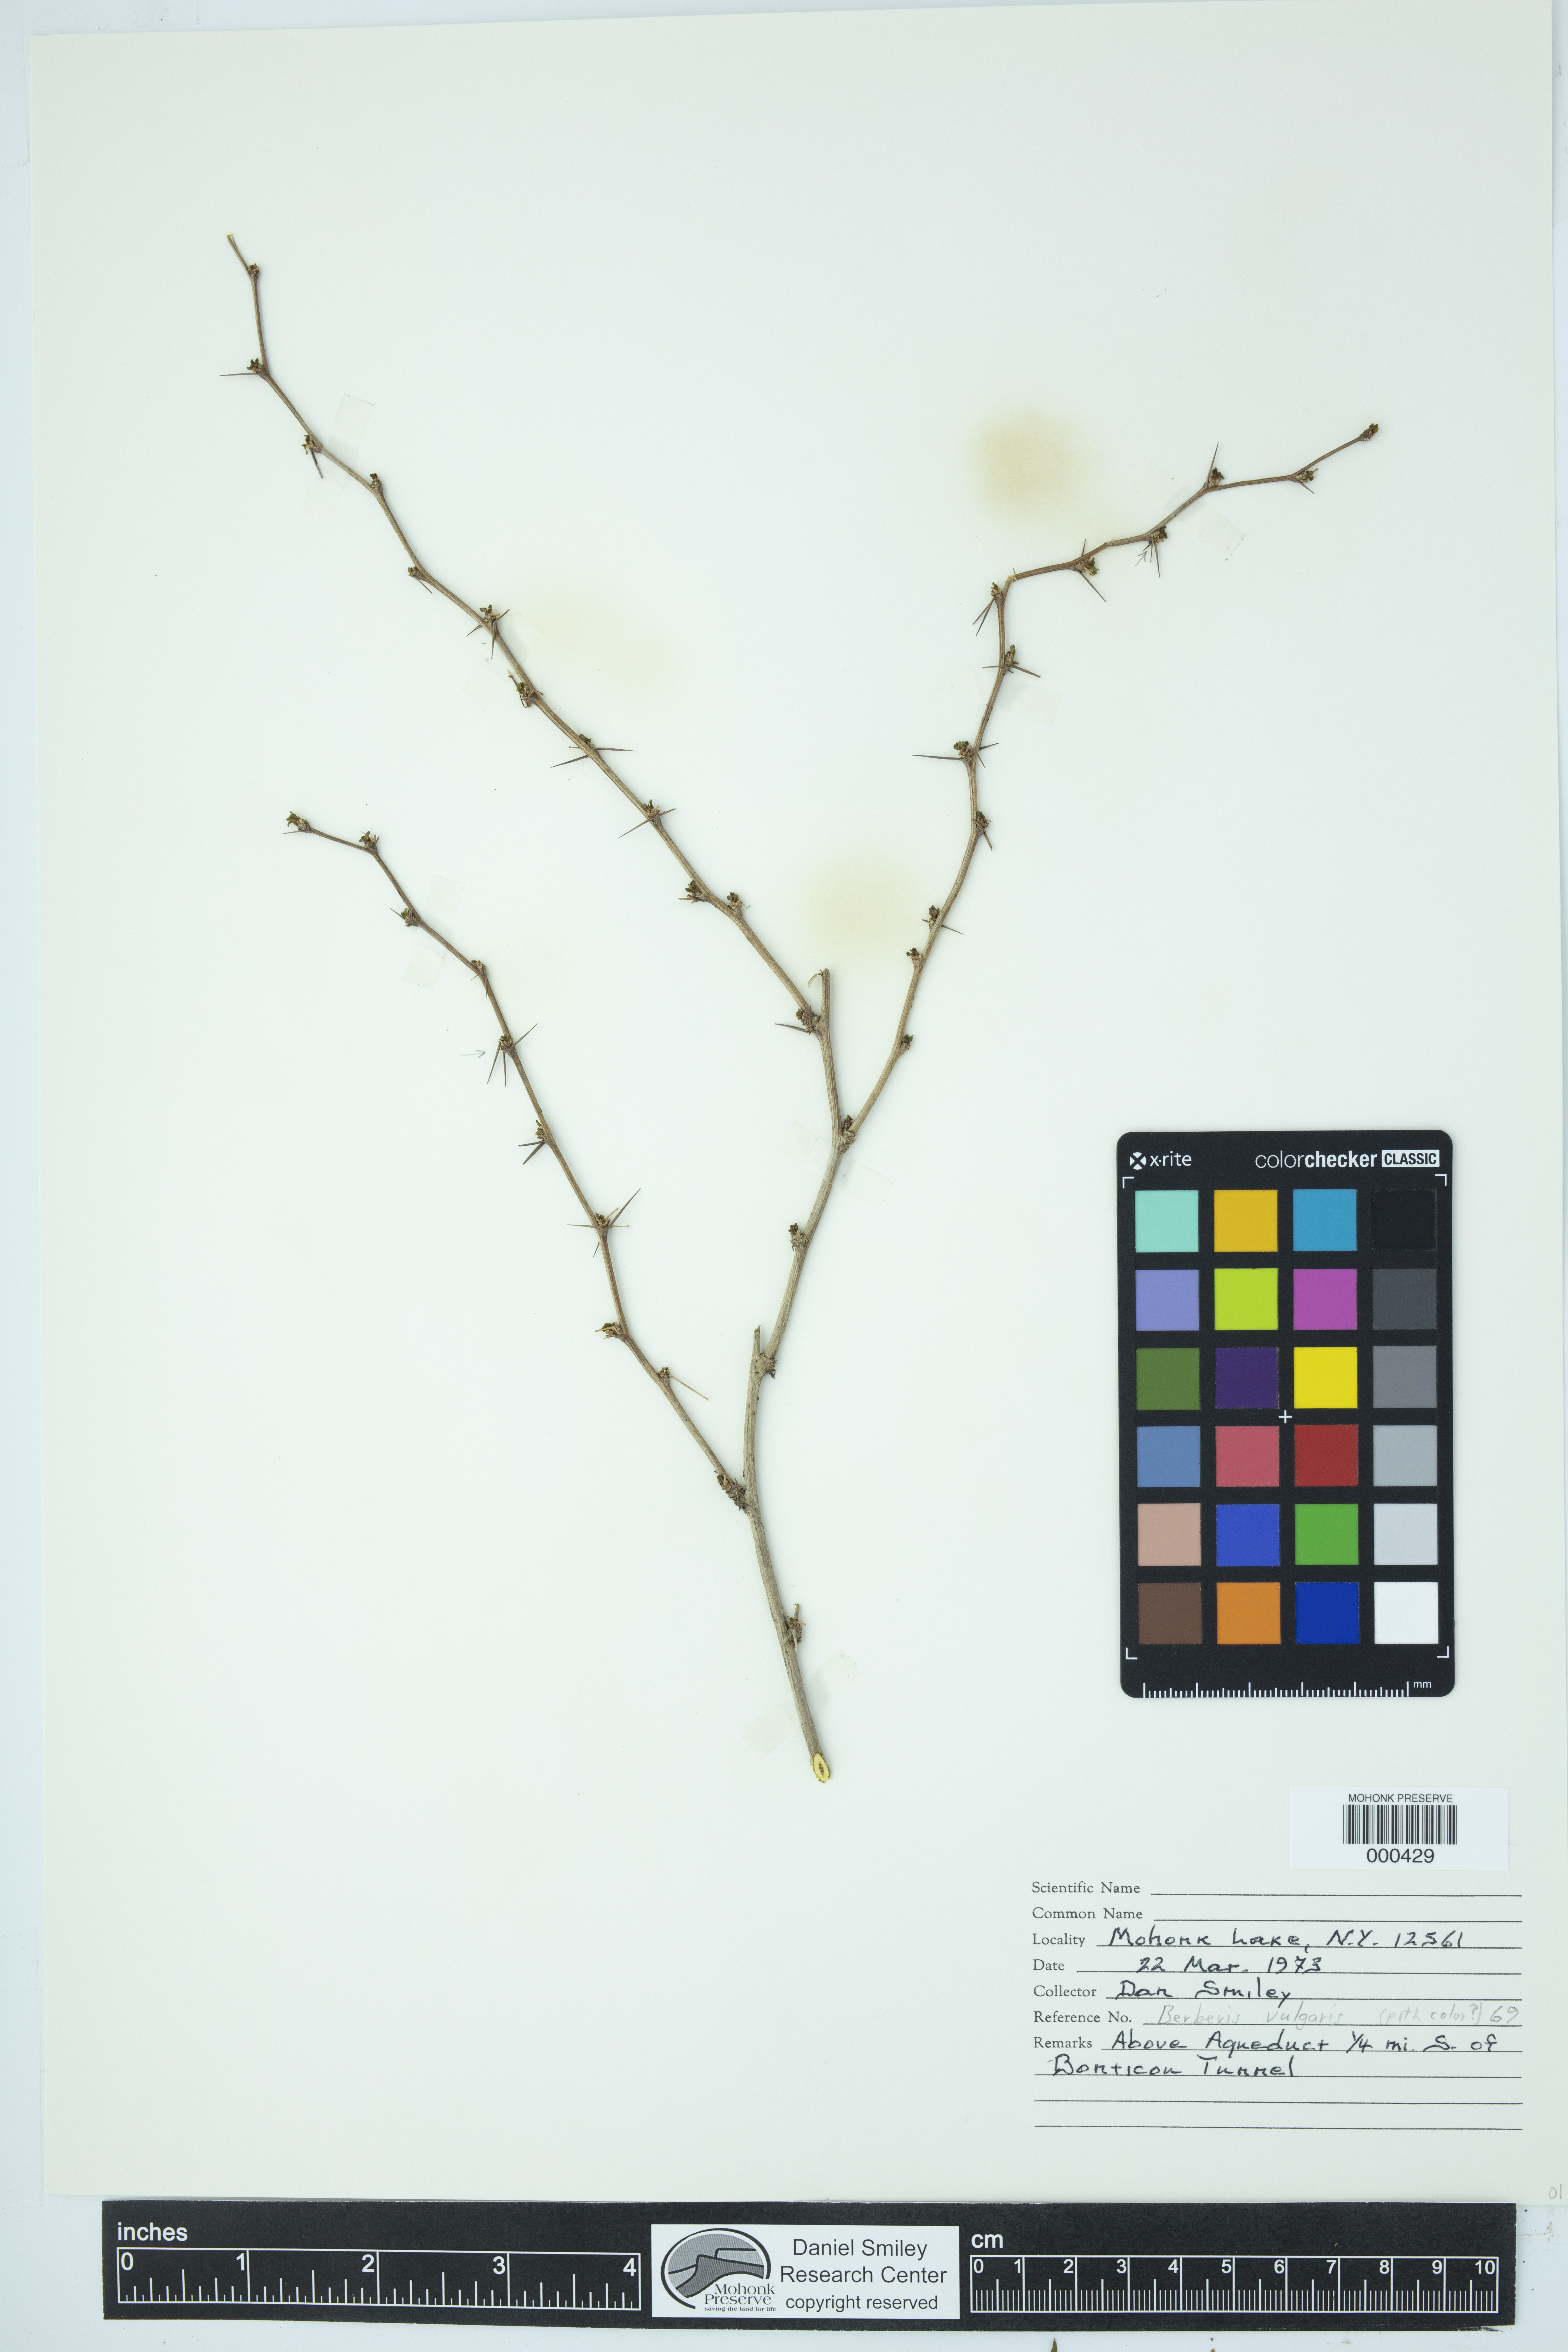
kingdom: Plantae
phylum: Tracheophyta
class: Magnoliopsida
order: Ranunculales
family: Berberidaceae
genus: Berberis
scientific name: Berberis vulgaris
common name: Barberry
